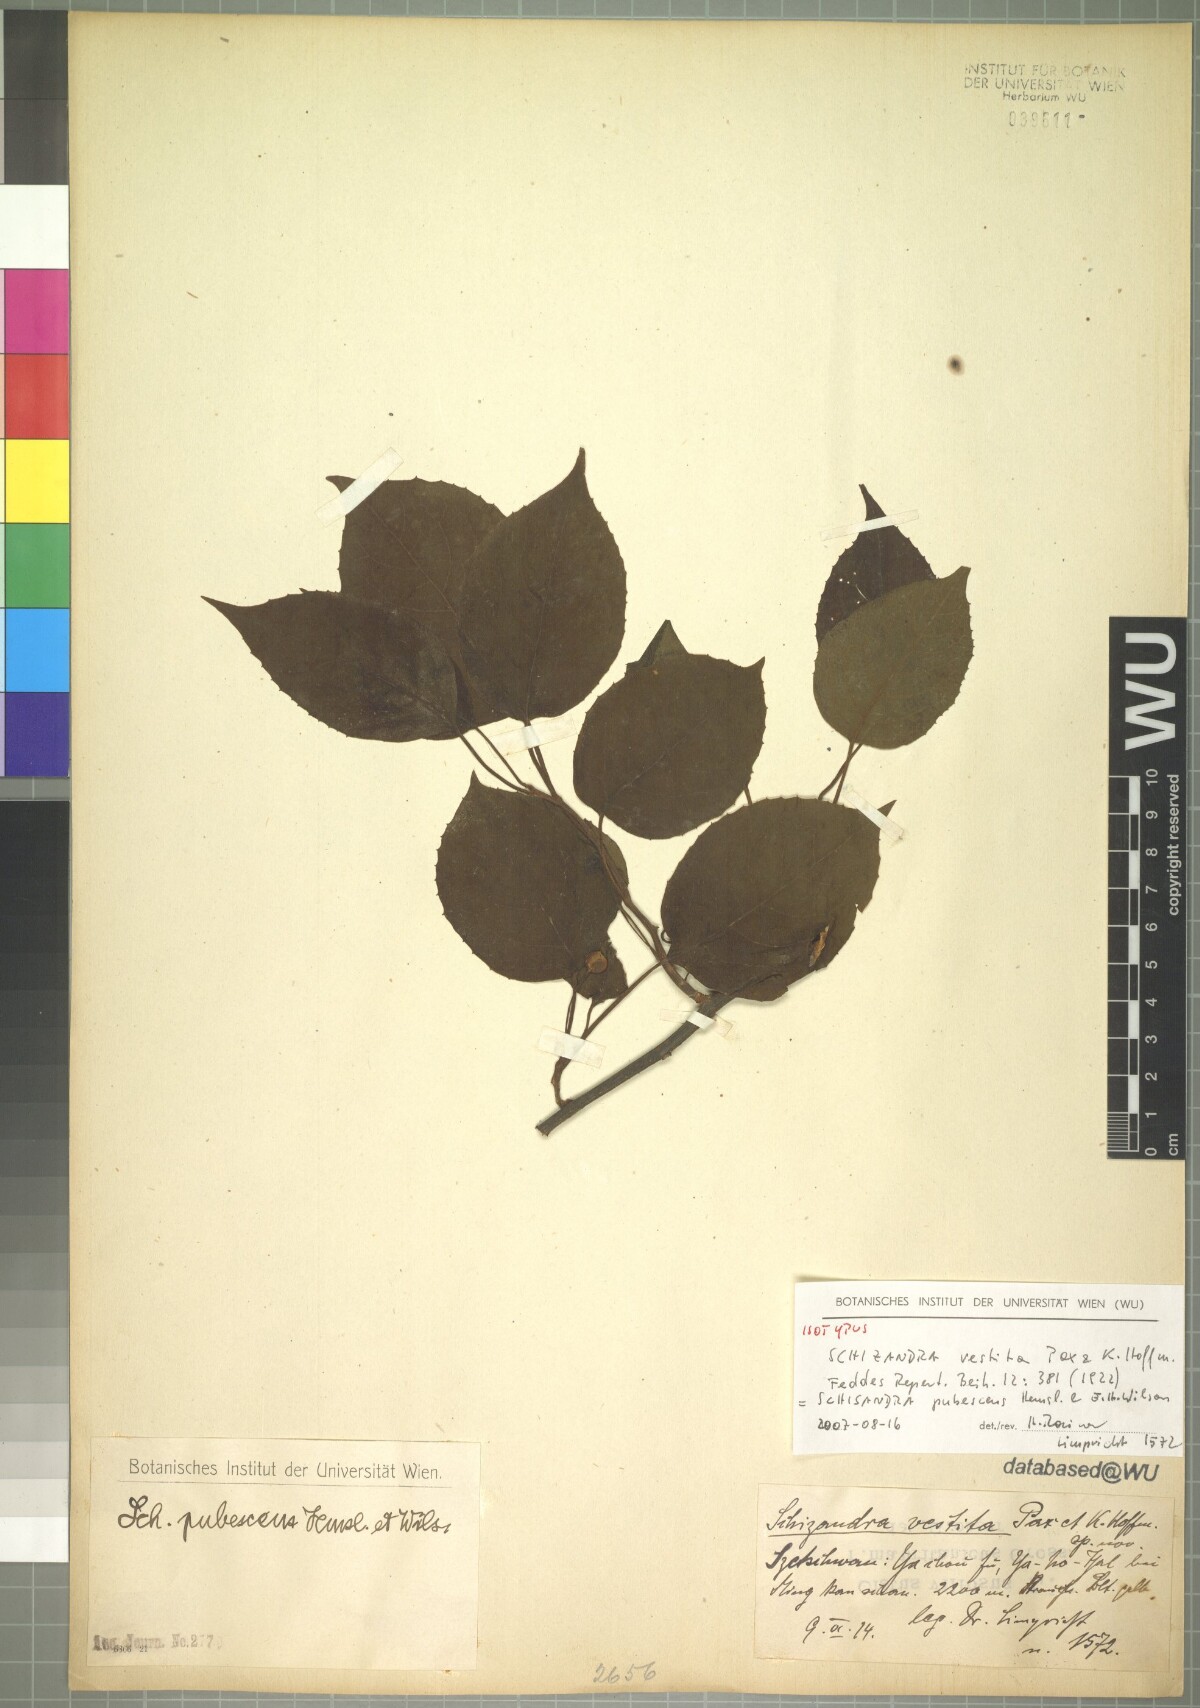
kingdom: Plantae
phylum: Tracheophyta
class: Magnoliopsida
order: Austrobaileyales
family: Schisandraceae
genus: Schisandra
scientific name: Schisandra pubescens
